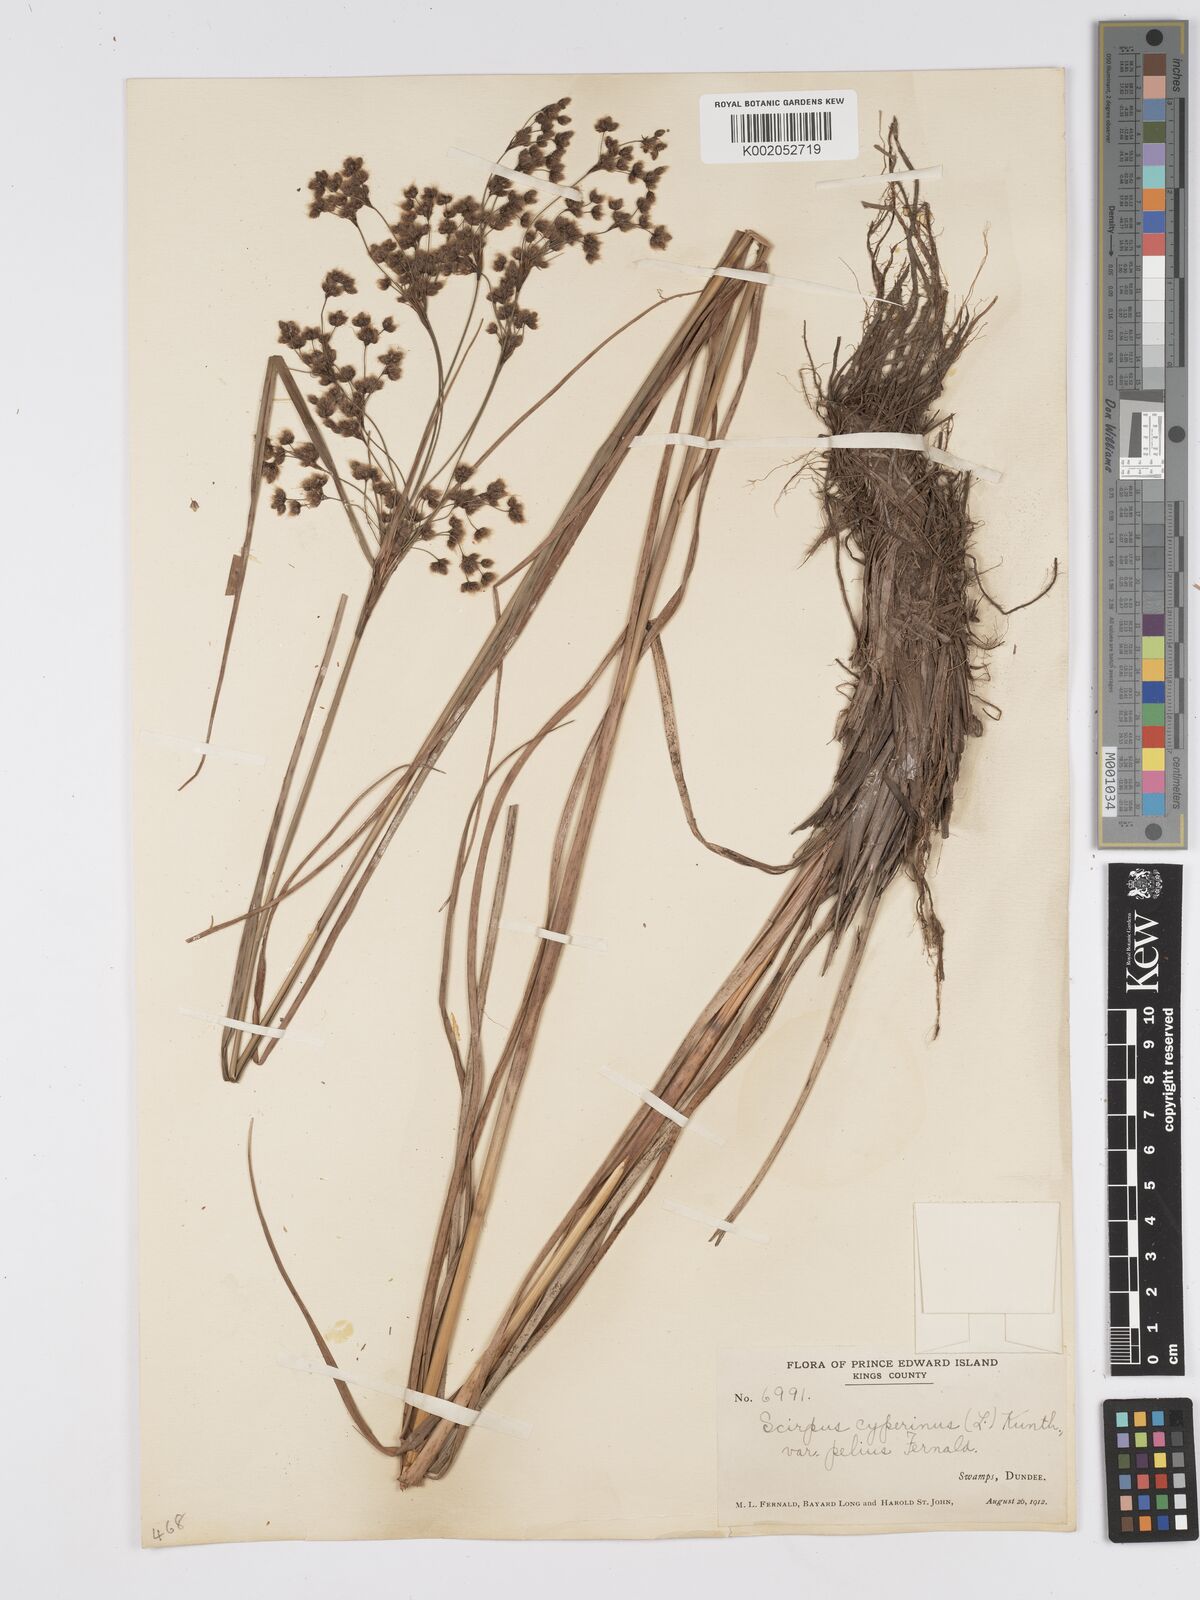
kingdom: Plantae
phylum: Tracheophyta
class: Liliopsida
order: Poales
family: Cyperaceae
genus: Scirpus
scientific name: Scirpus cyperinus
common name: Black-sheathed bulrush
